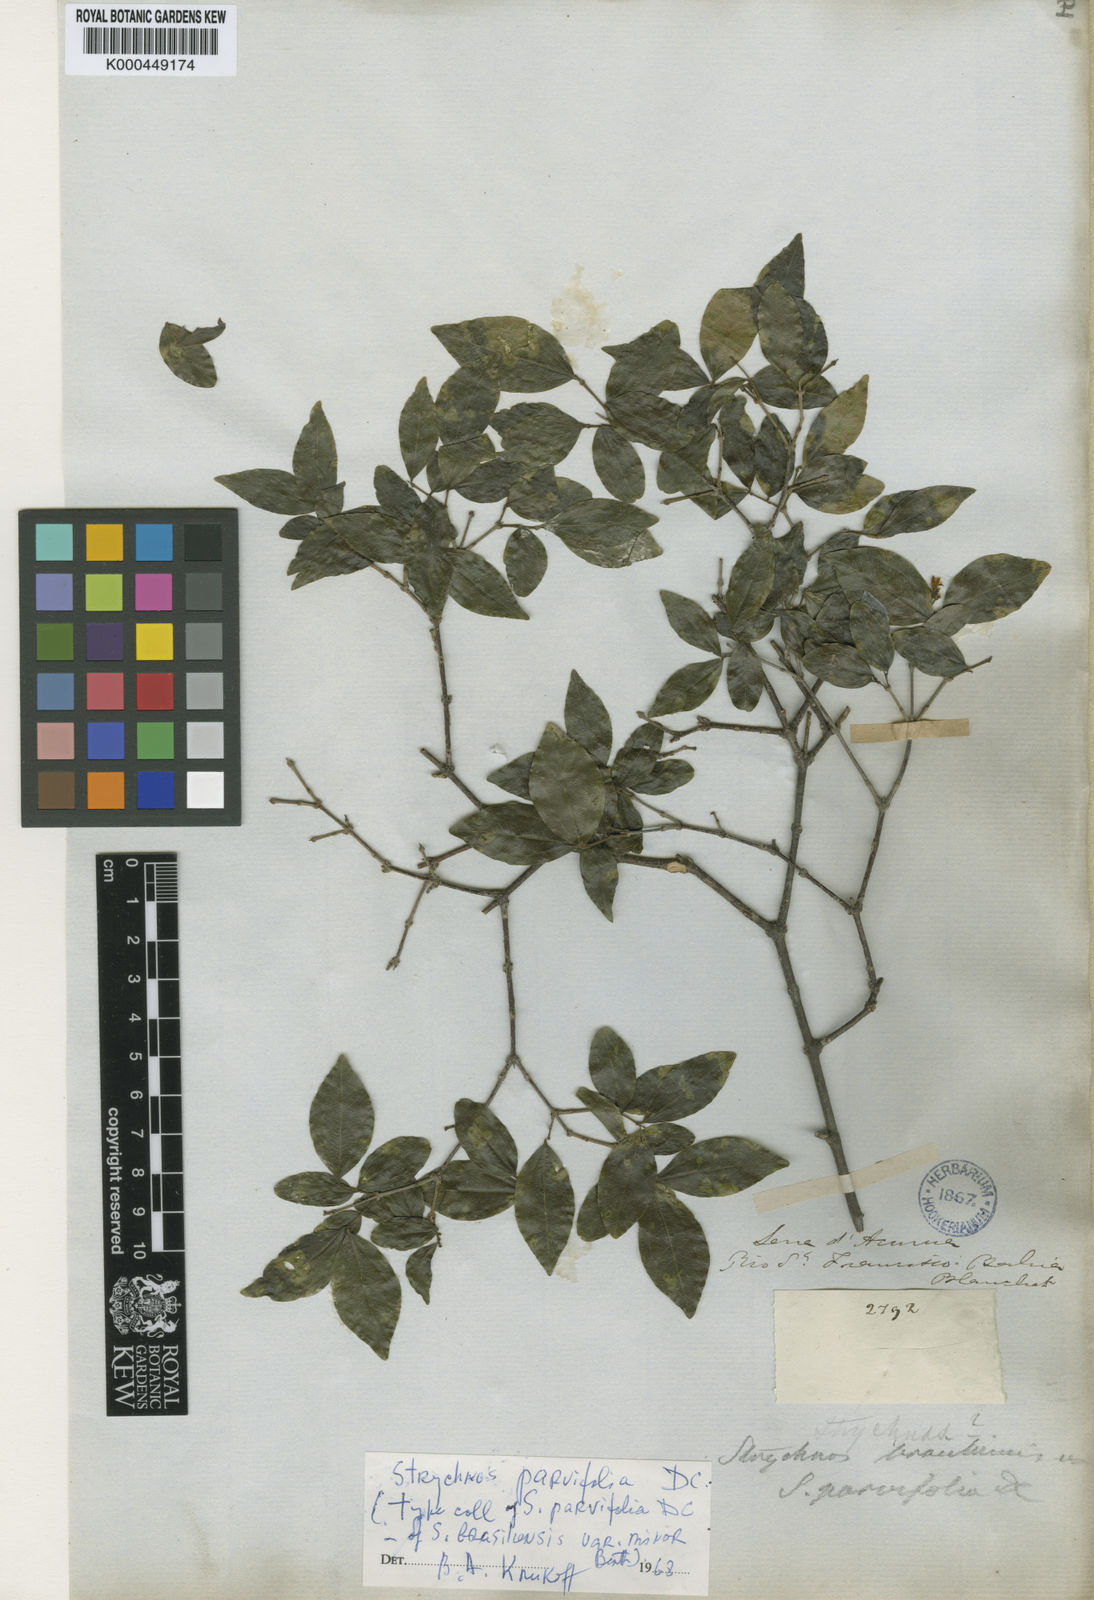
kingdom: Plantae
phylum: Tracheophyta
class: Magnoliopsida
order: Gentianales
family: Loganiaceae
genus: Strychnos
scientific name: Strychnos parvifolia
